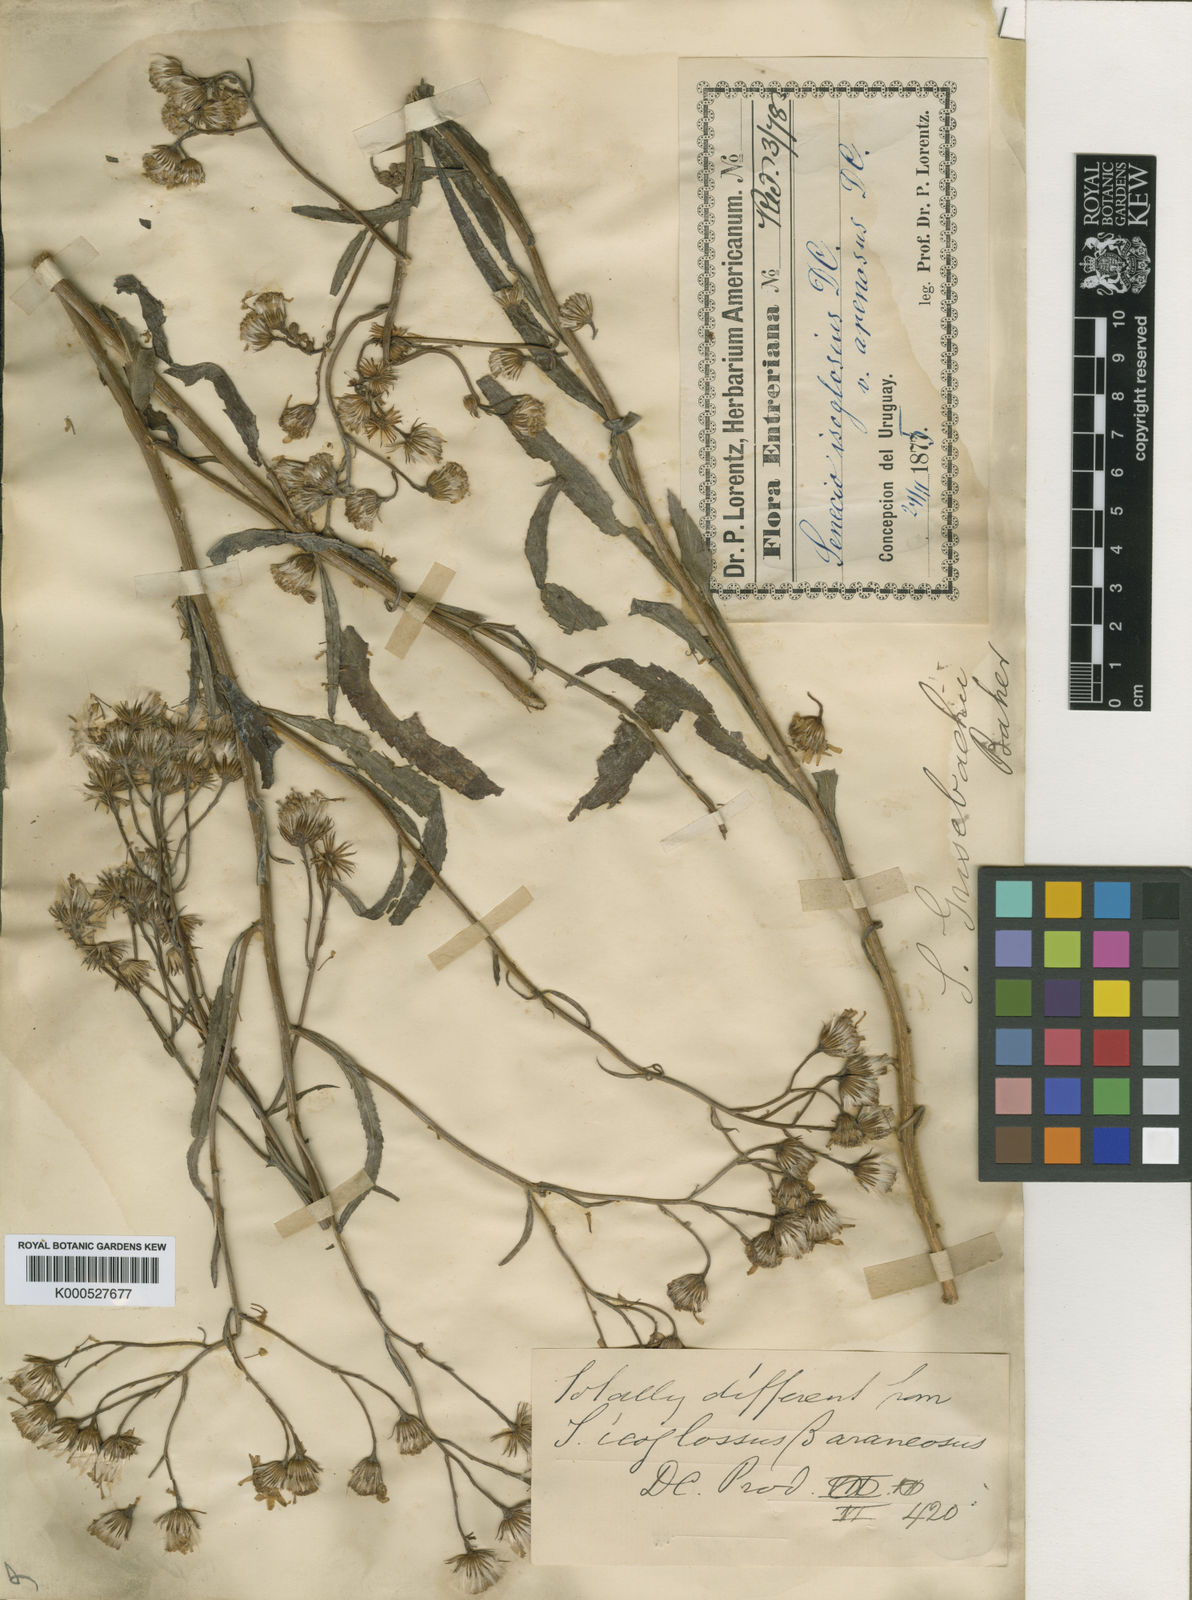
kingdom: Plantae
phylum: Tracheophyta
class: Magnoliopsida
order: Asterales
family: Asteraceae
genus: Senecio
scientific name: Senecio grisebachii
